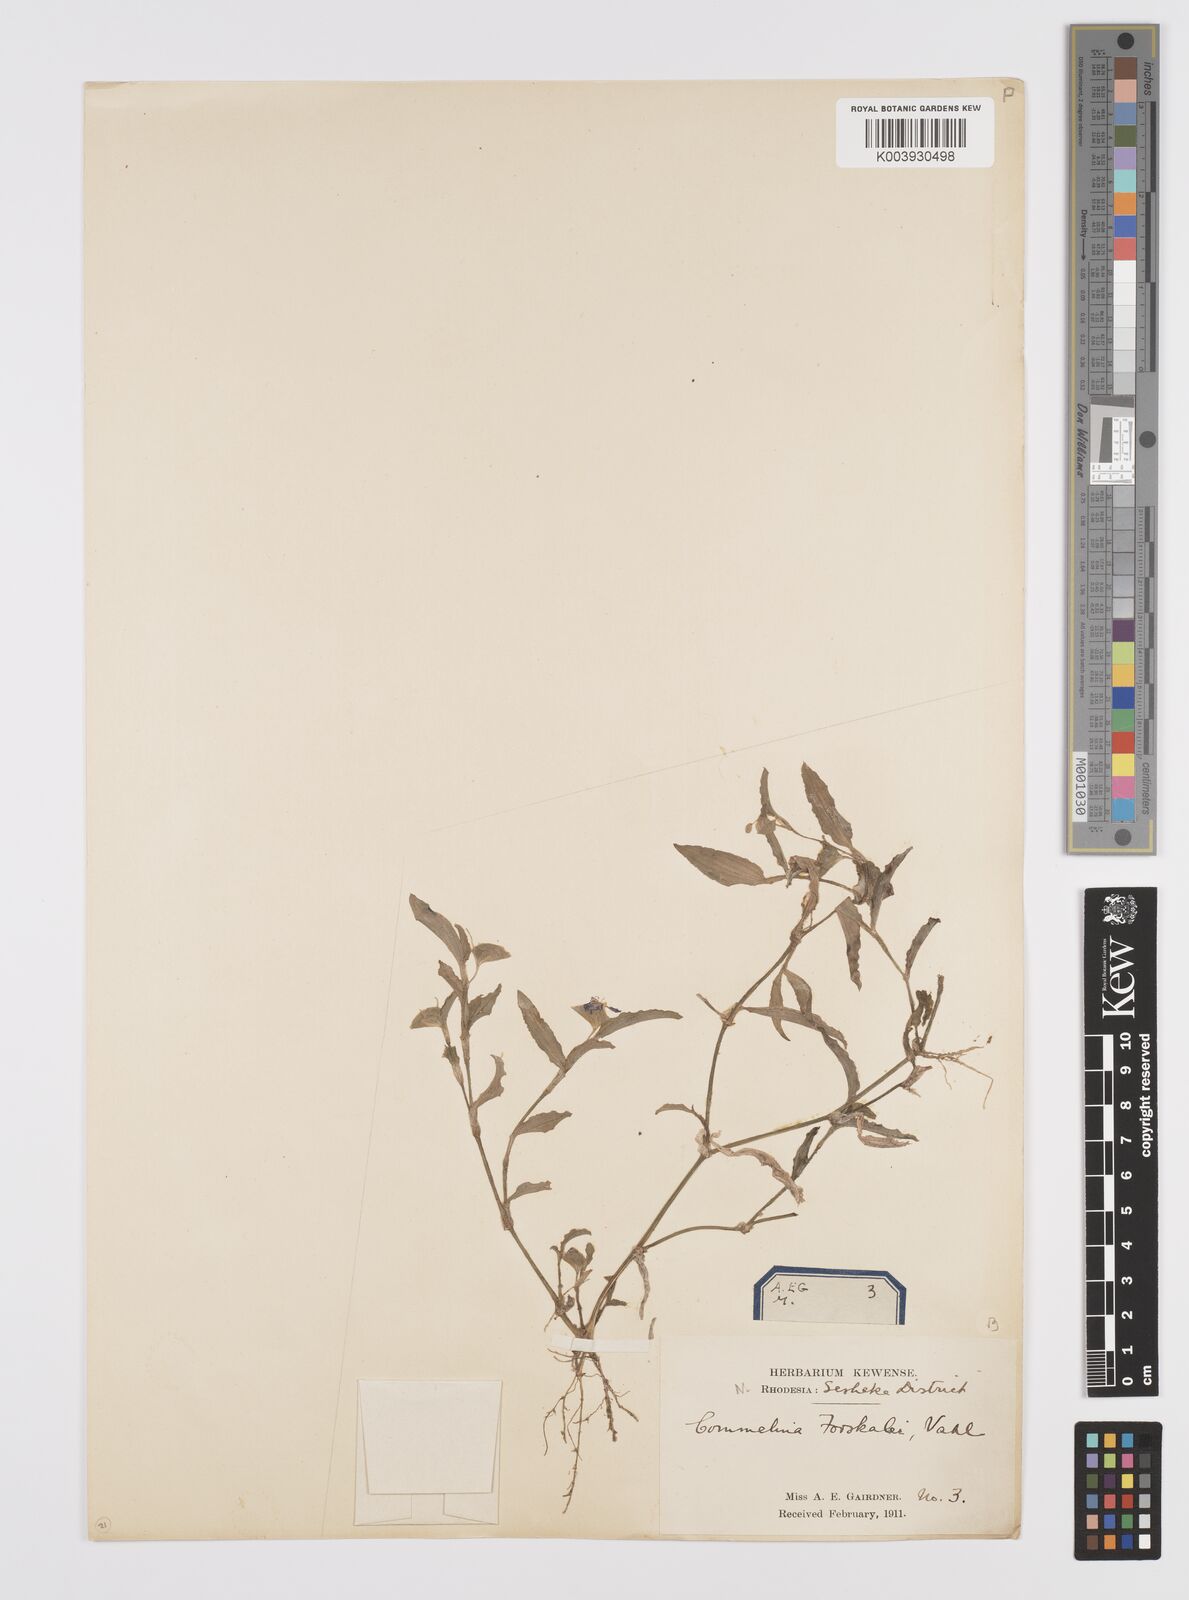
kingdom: Plantae
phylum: Tracheophyta
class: Liliopsida
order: Commelinales
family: Commelinaceae
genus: Commelina
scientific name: Commelina forskaolii
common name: Rat's ear
